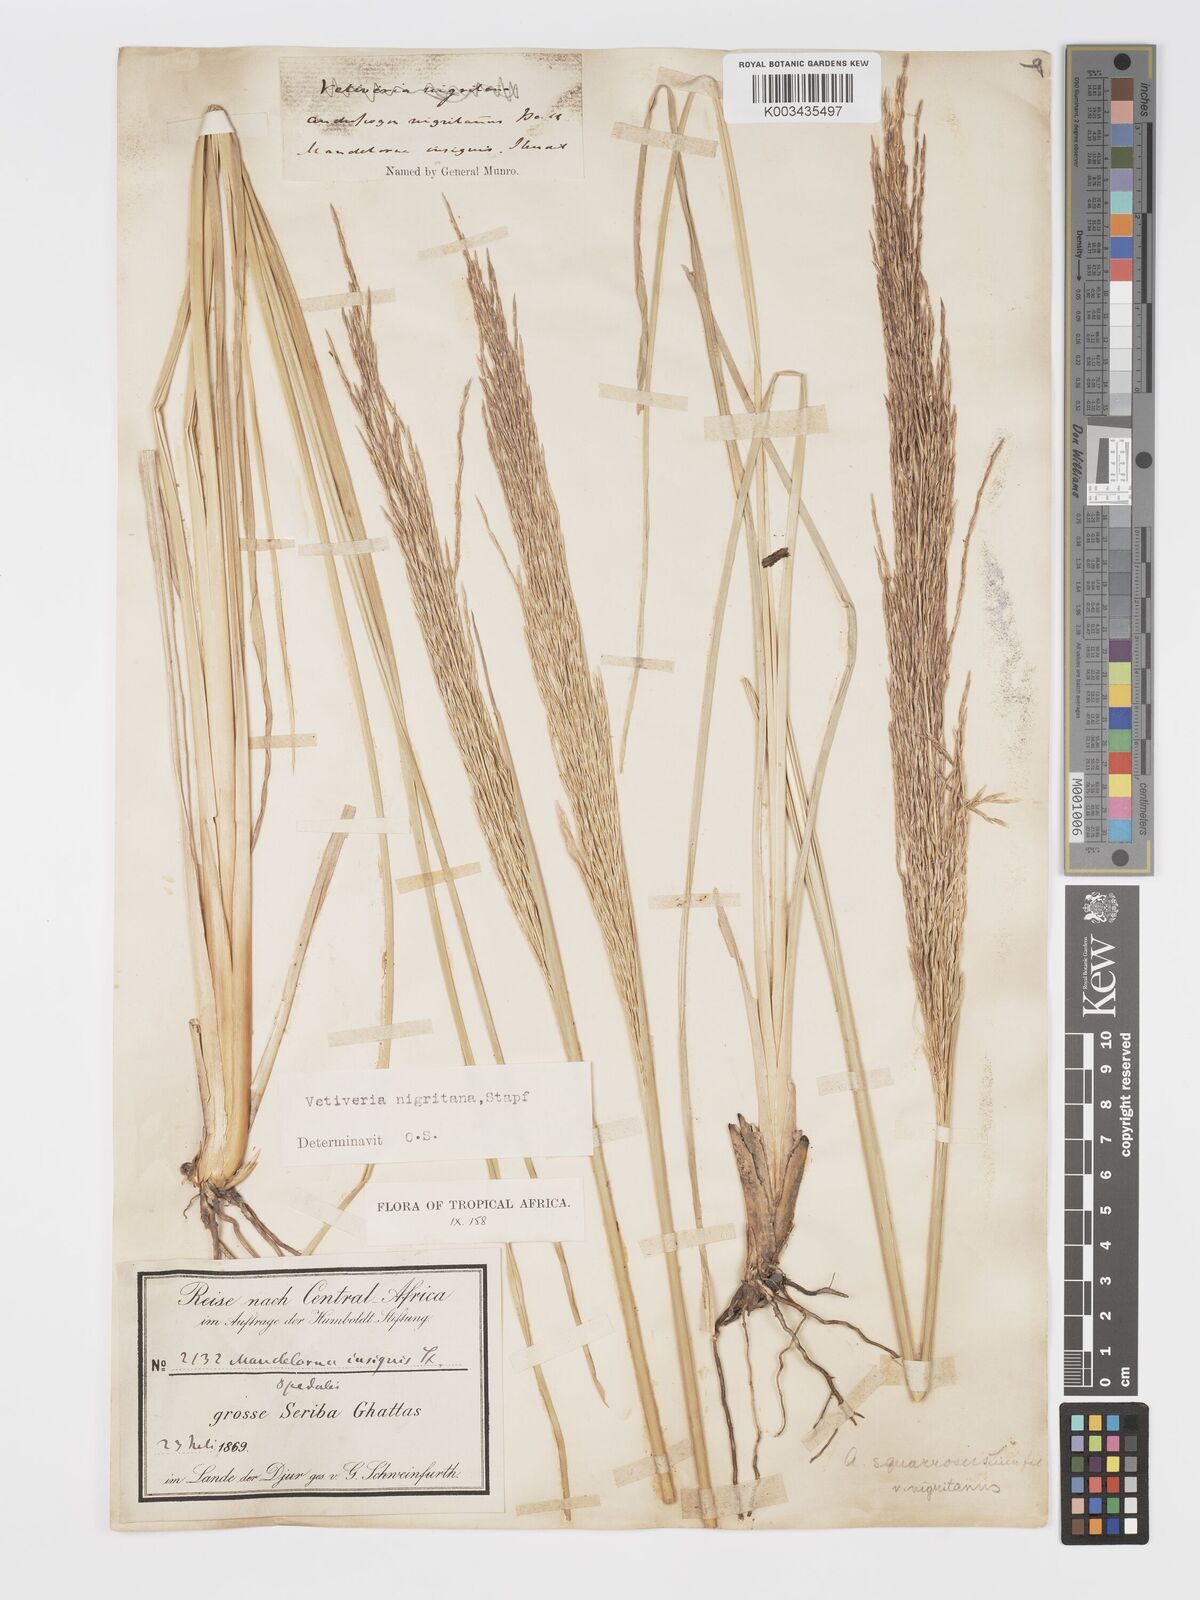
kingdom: Plantae
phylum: Tracheophyta
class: Liliopsida
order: Poales
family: Poaceae
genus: Chrysopogon
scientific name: Chrysopogon nigritanus
